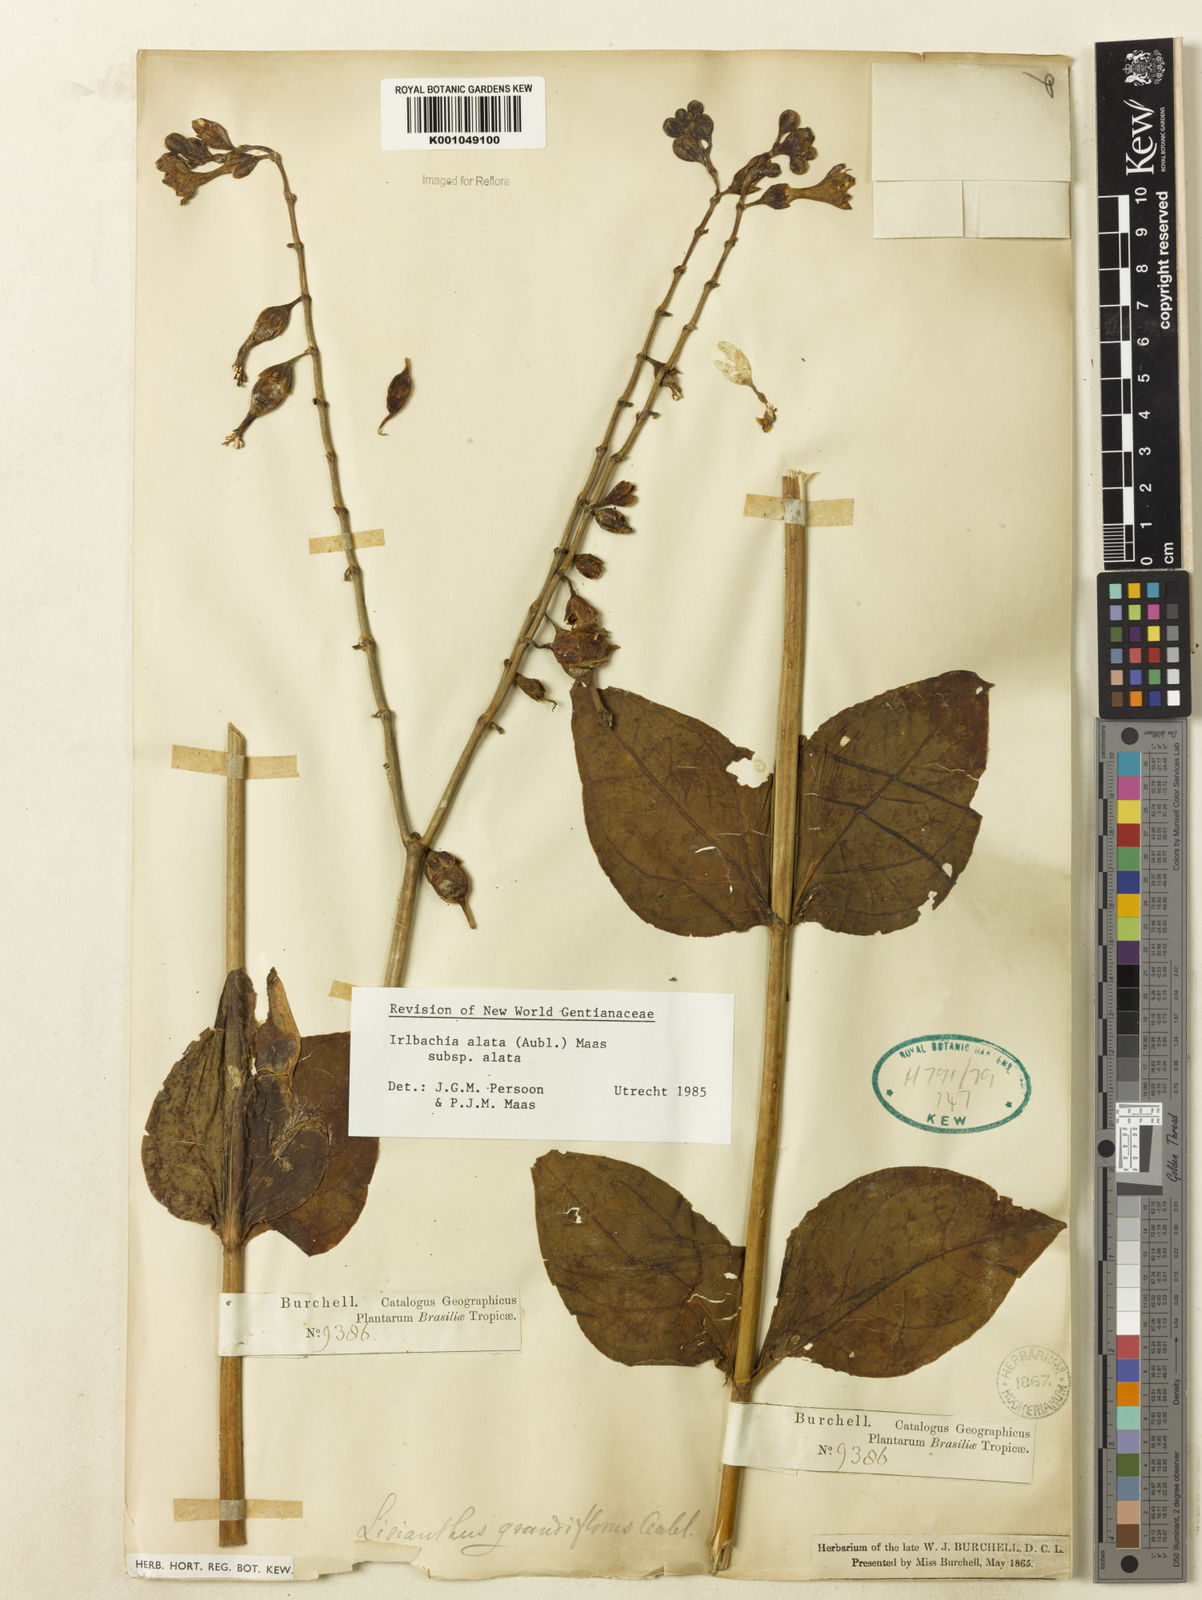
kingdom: Plantae
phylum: Tracheophyta
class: Magnoliopsida
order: Gentianales
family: Gentianaceae
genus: Chelonanthus
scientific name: Chelonanthus alatus
